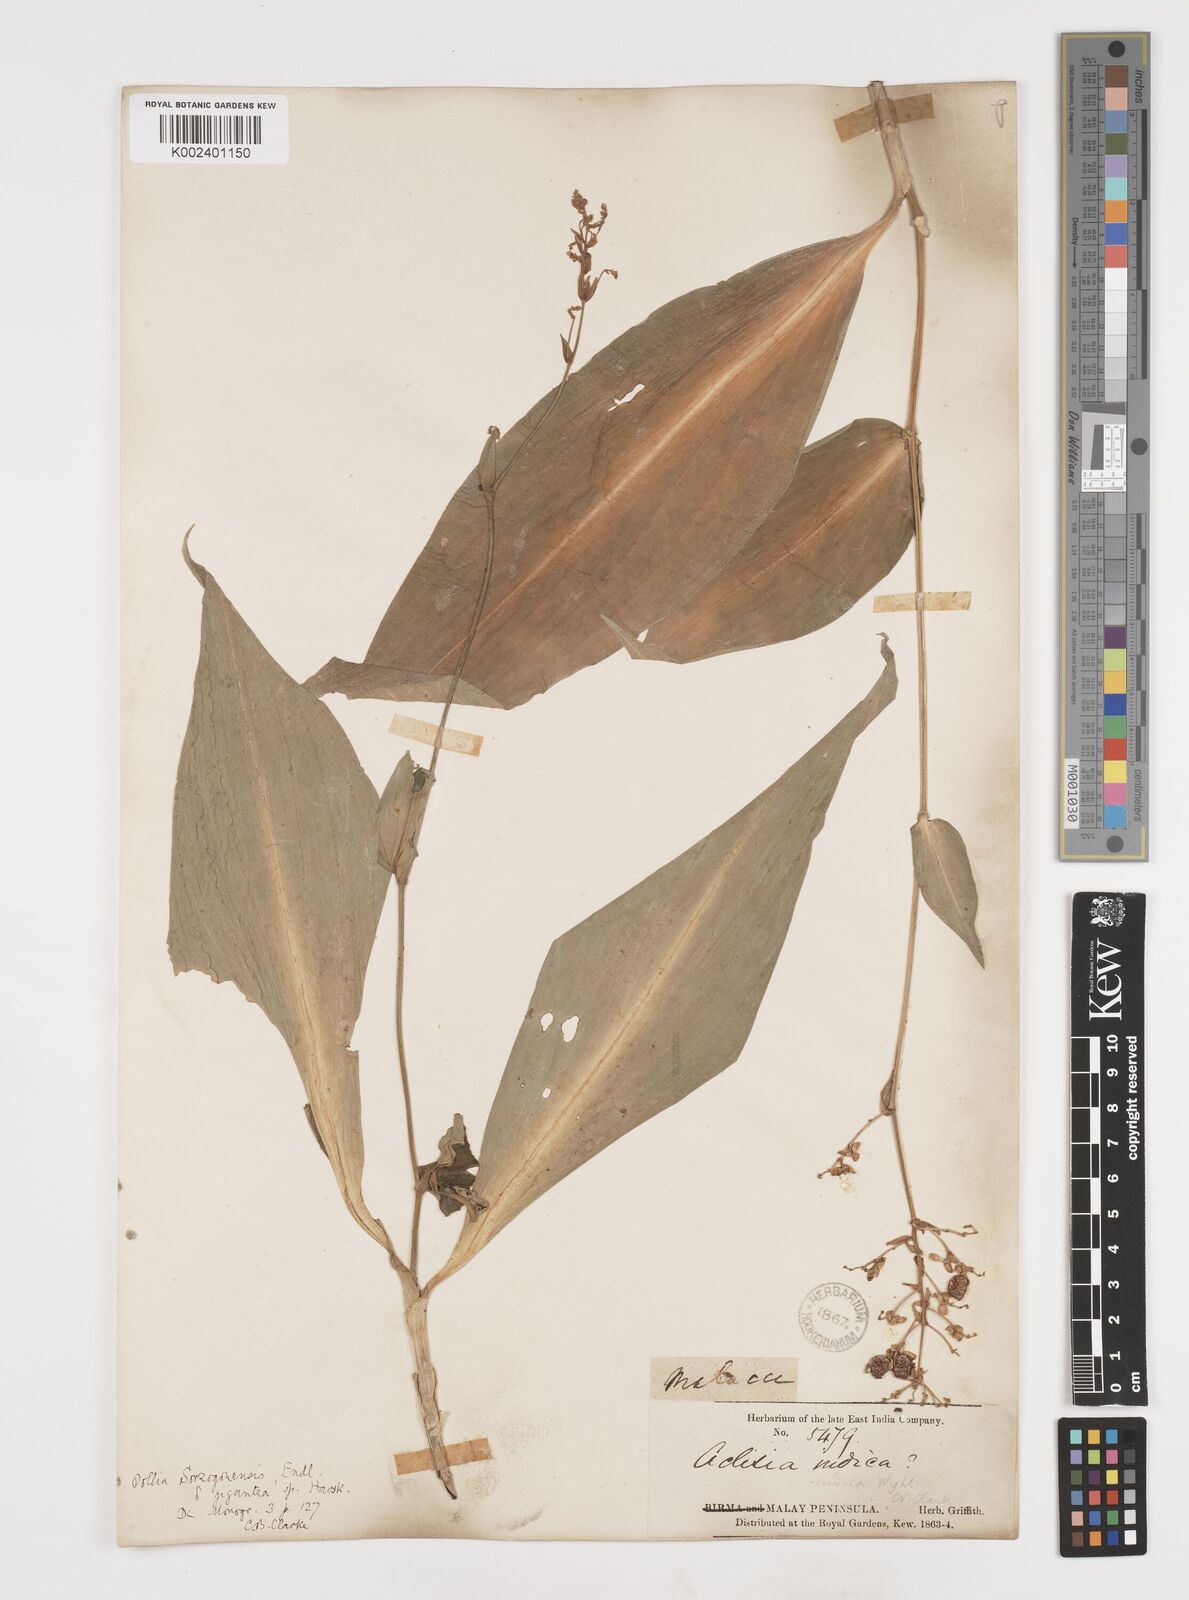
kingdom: Plantae
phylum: Tracheophyta
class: Liliopsida
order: Commelinales
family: Commelinaceae
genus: Pollia
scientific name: Pollia secundiflora
